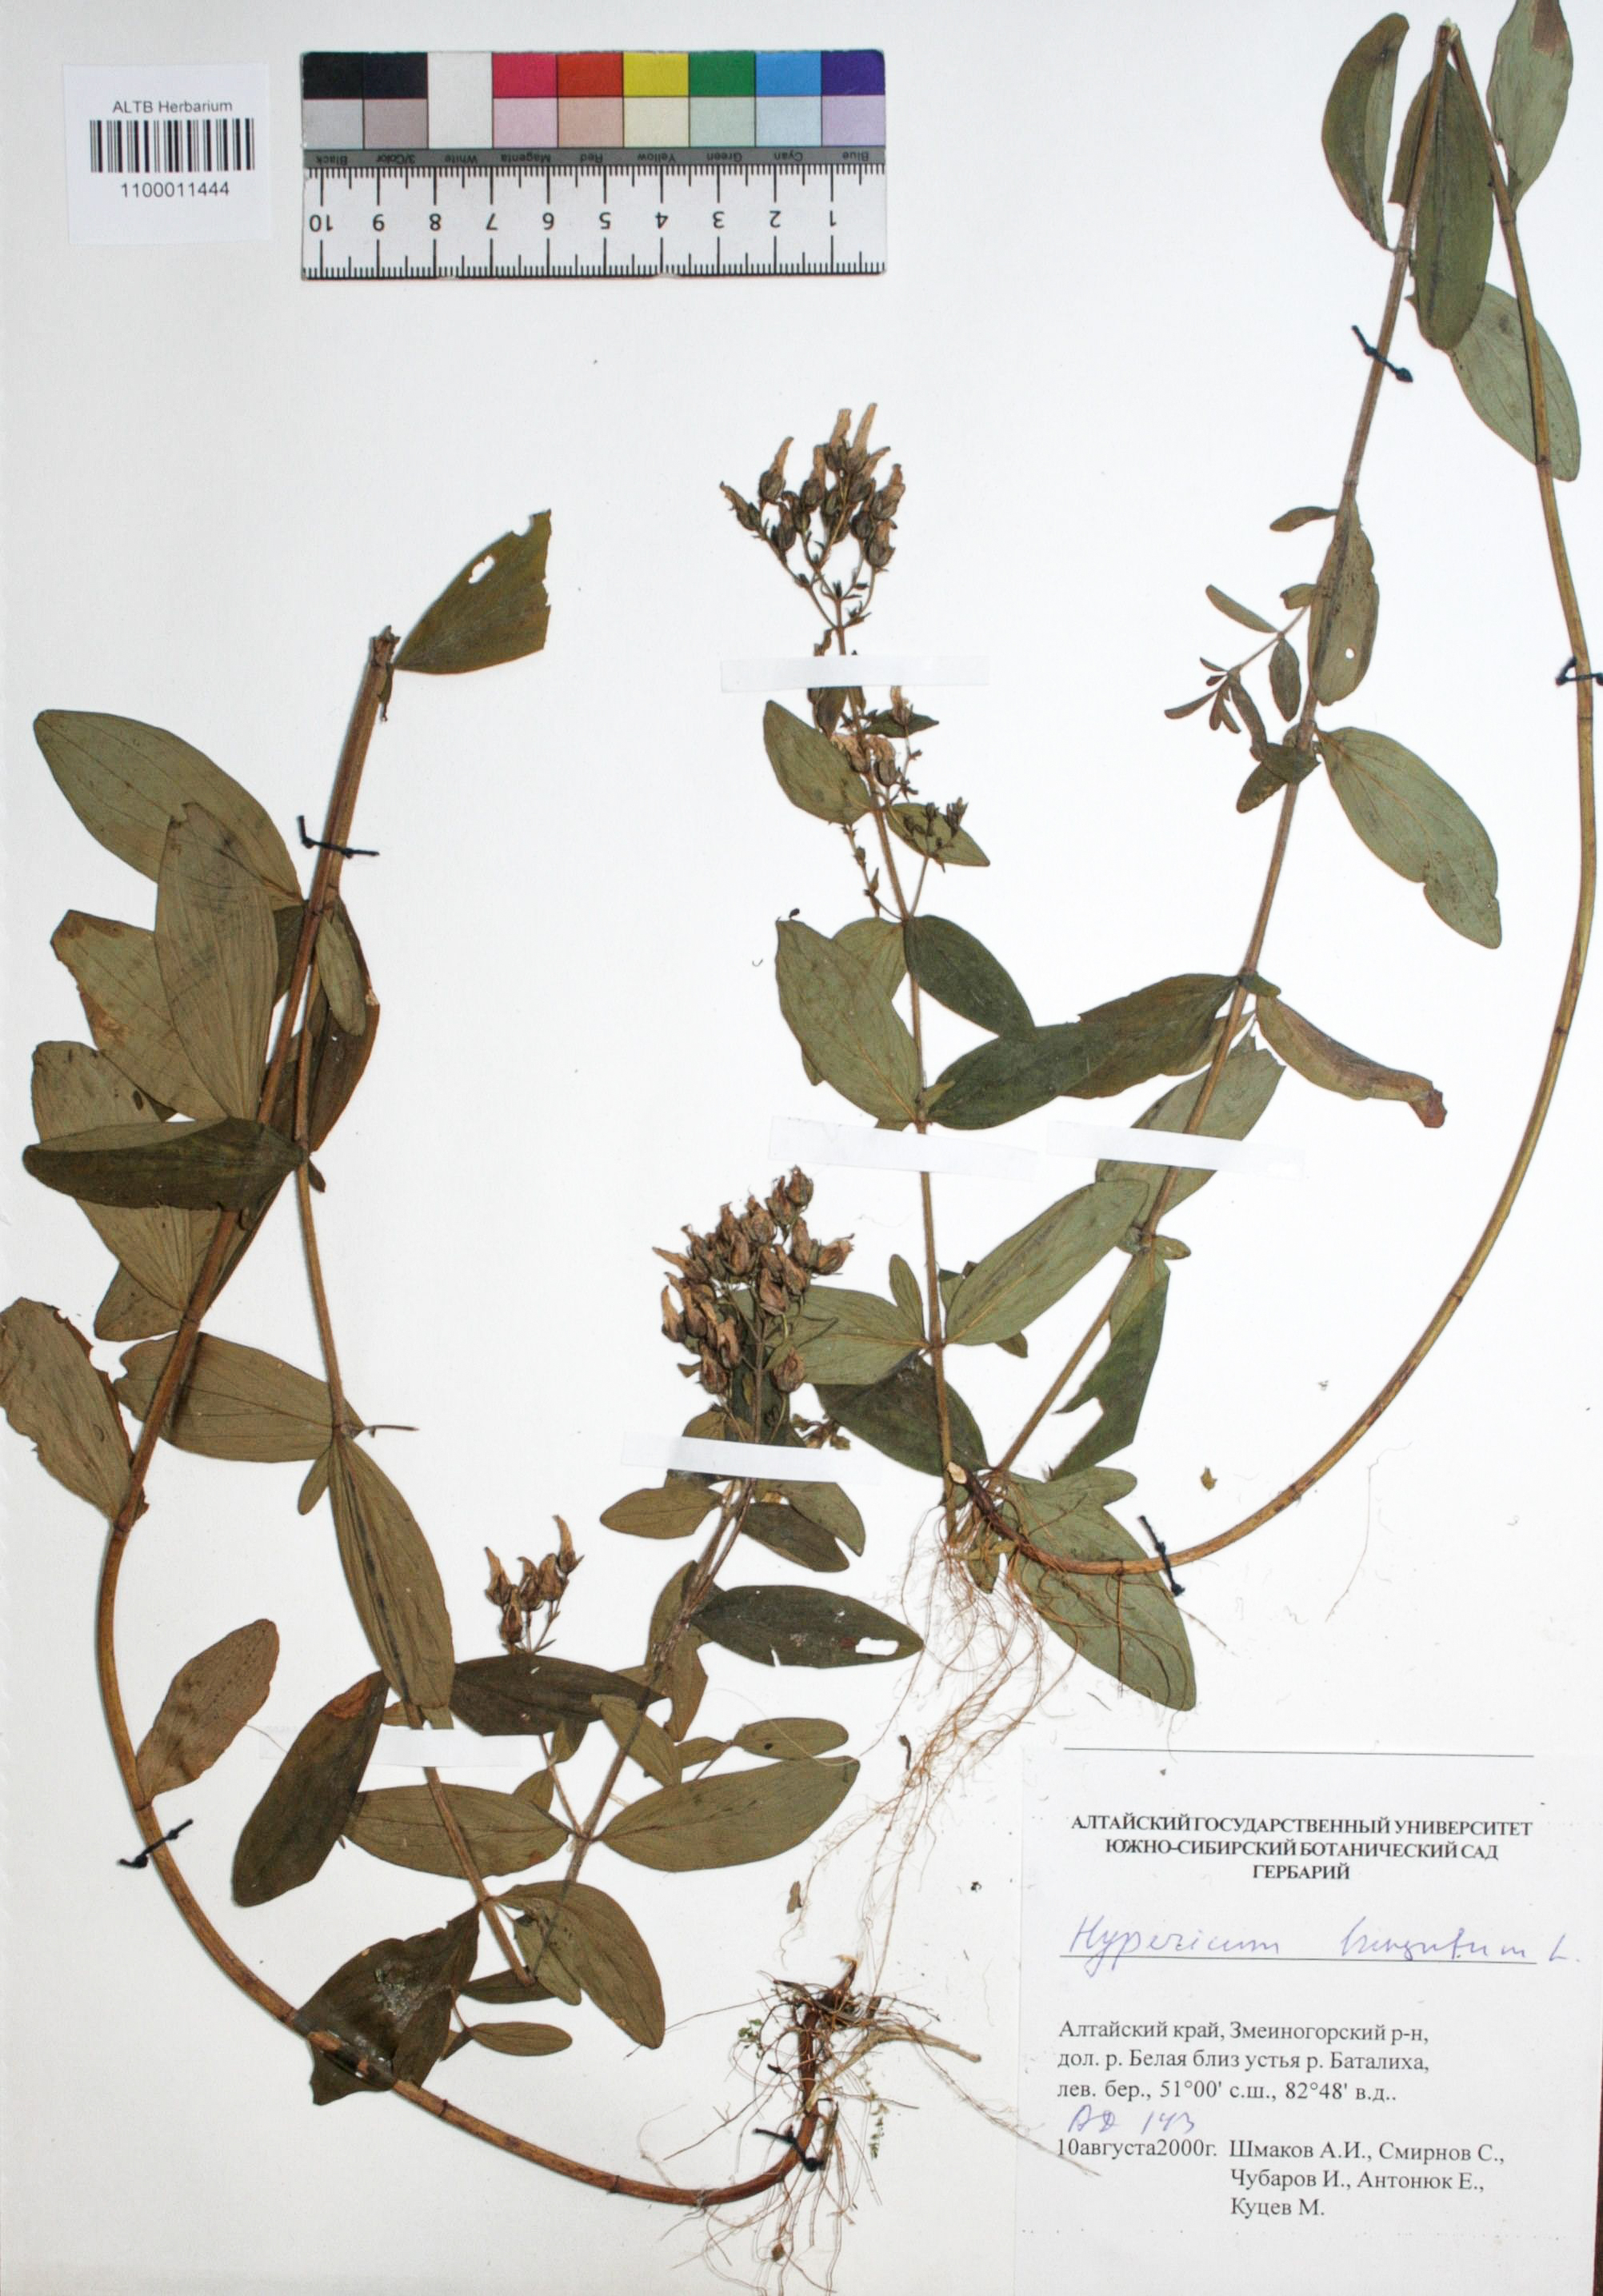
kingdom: Plantae
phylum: Tracheophyta
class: Magnoliopsida
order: Malpighiales
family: Hypericaceae
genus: Hypericum
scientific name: Hypericum hirsutum
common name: Hairy st. john's-wort
